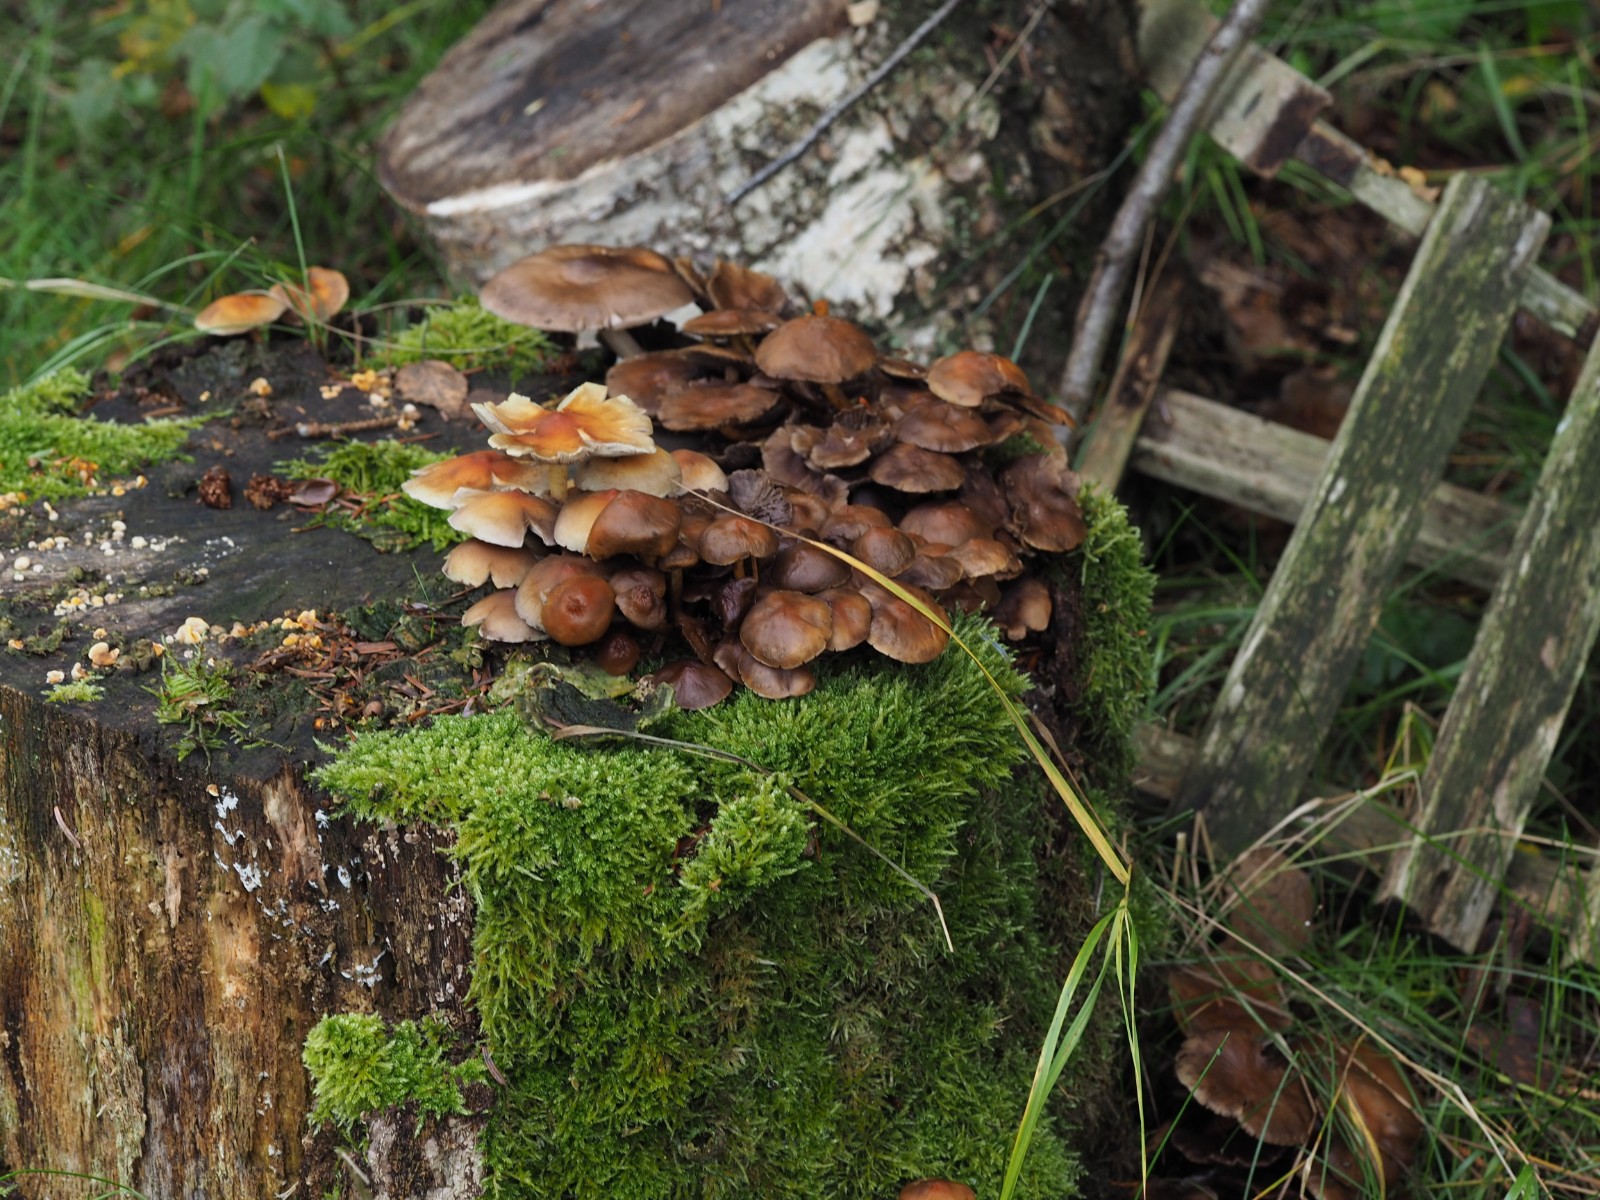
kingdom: Fungi
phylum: Basidiomycota
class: Agaricomycetes
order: Agaricales
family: Strophariaceae
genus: Hypholoma
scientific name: Hypholoma fasciculare
